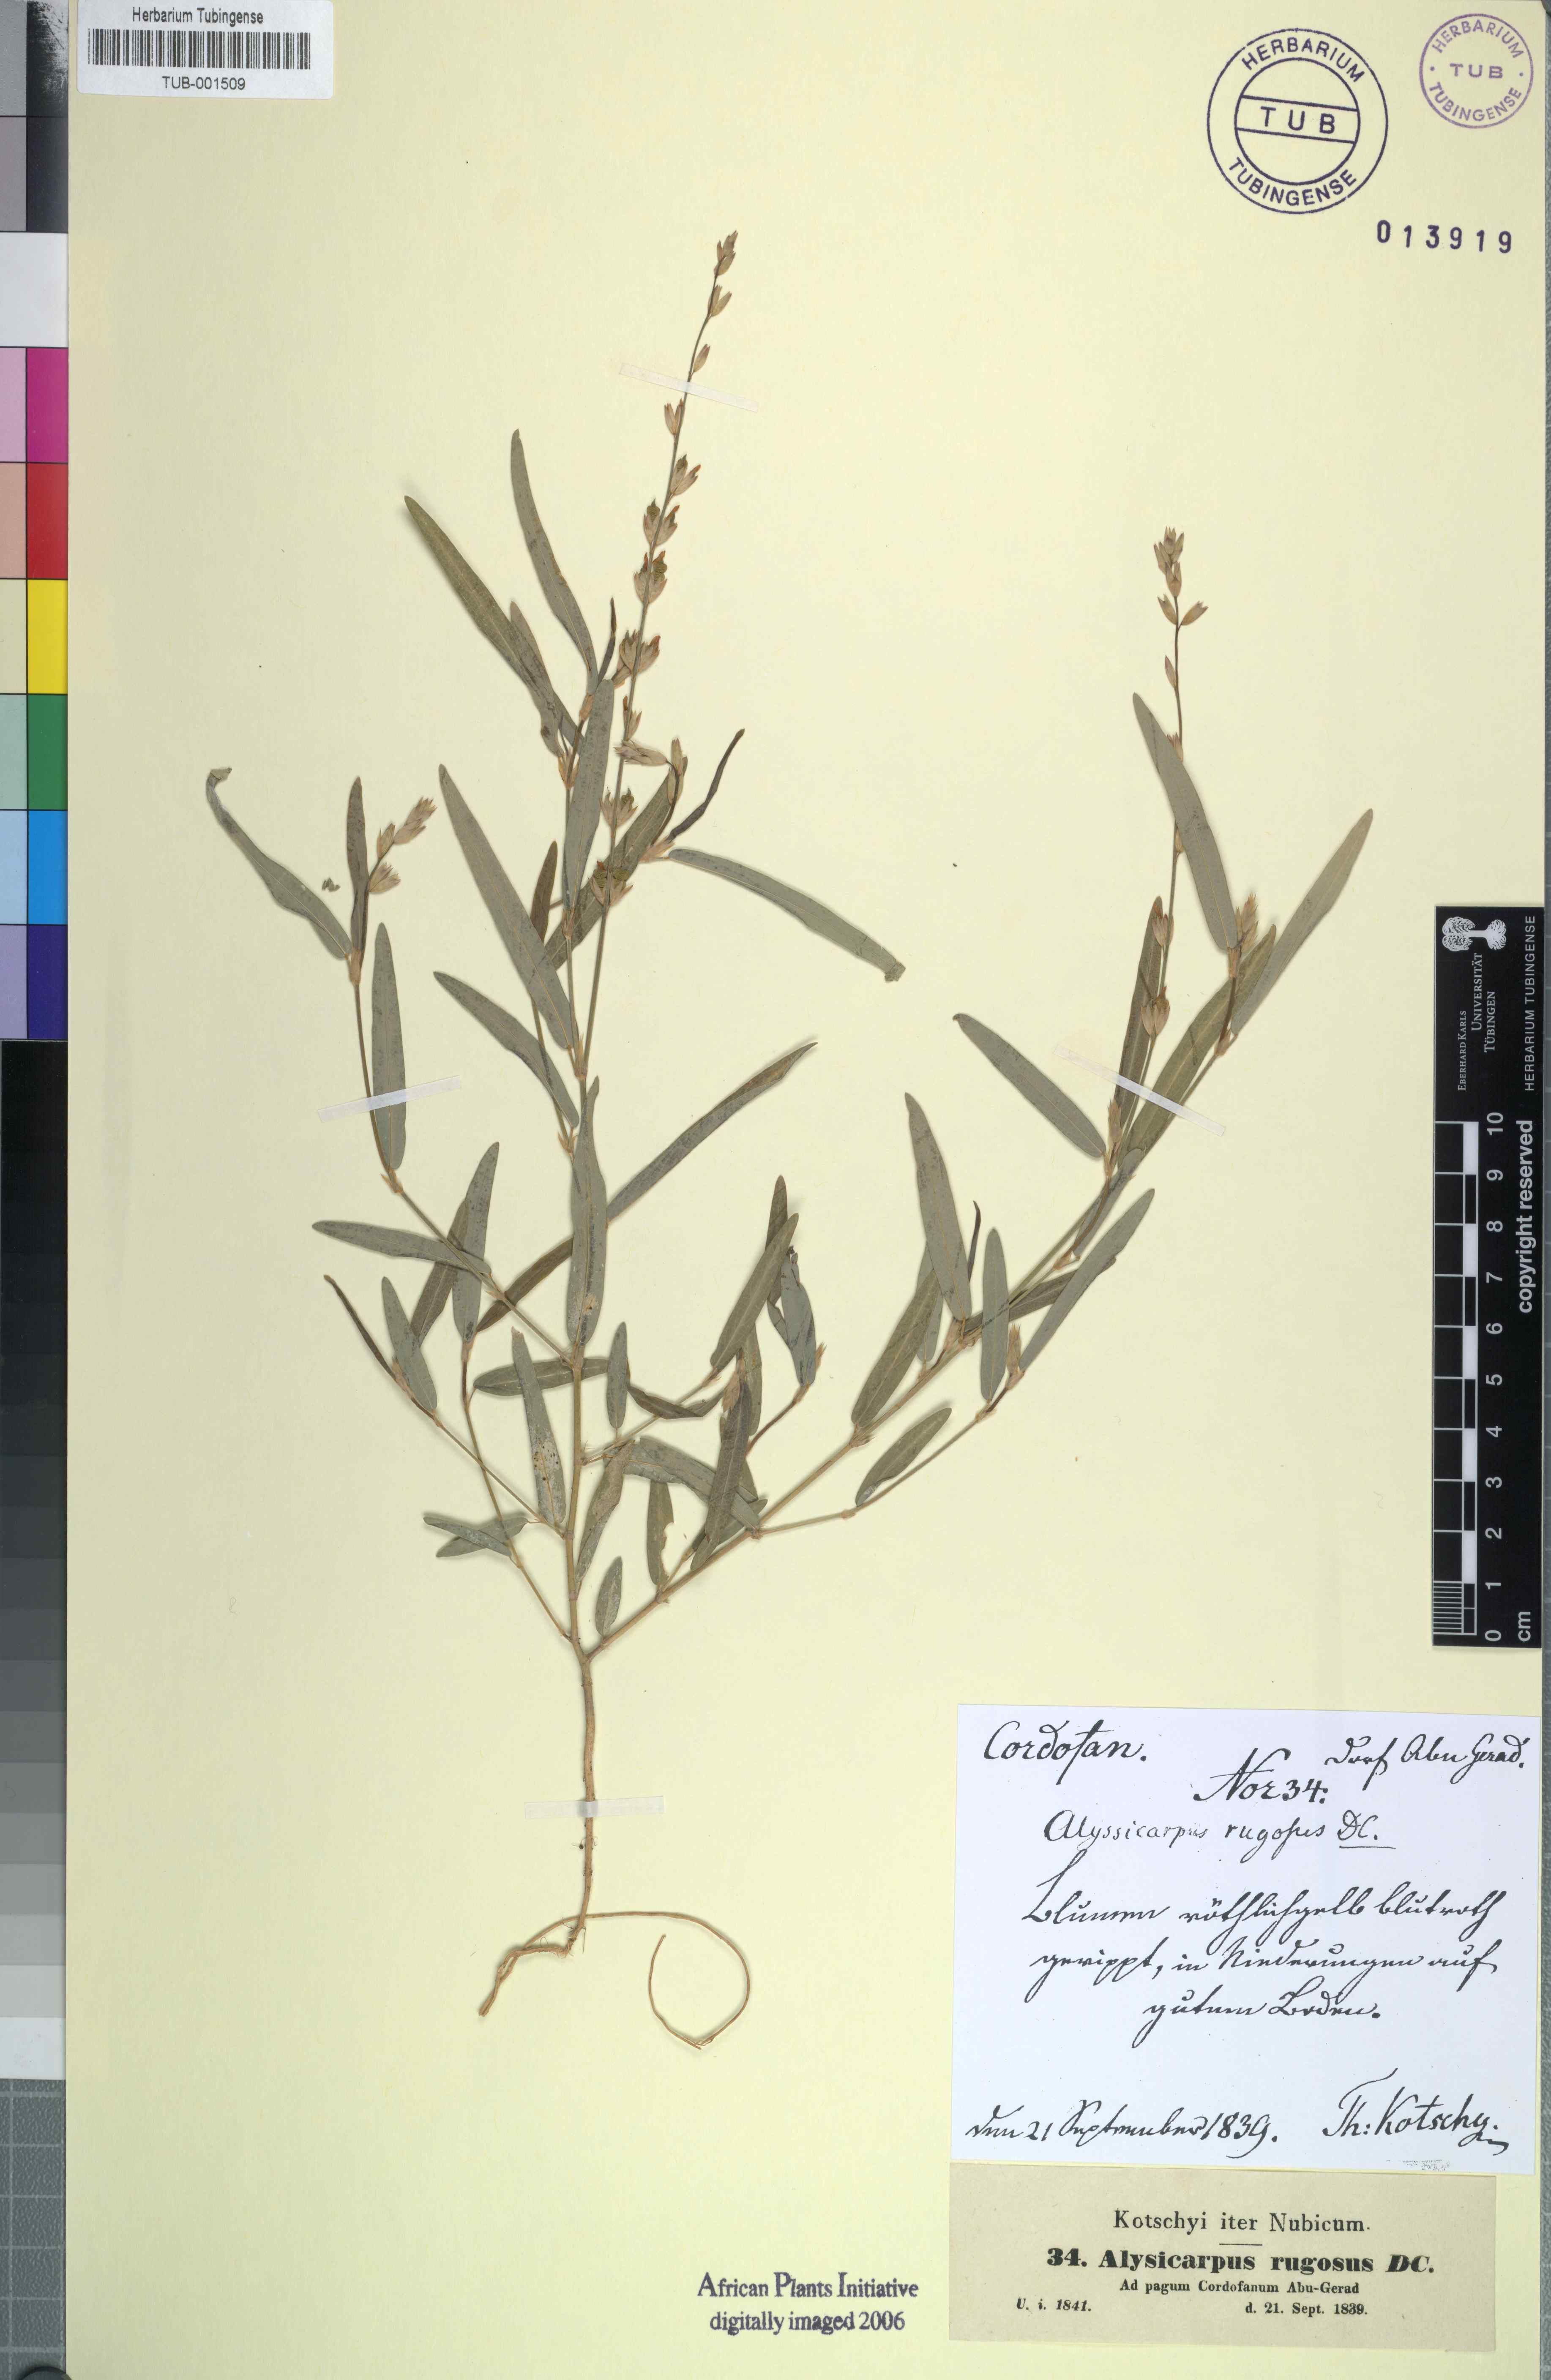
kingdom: Plantae
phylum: Tracheophyta
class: Magnoliopsida
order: Fabales
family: Fabaceae
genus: Alysicarpus
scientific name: Alysicarpus rugosus
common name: Red moneywort
